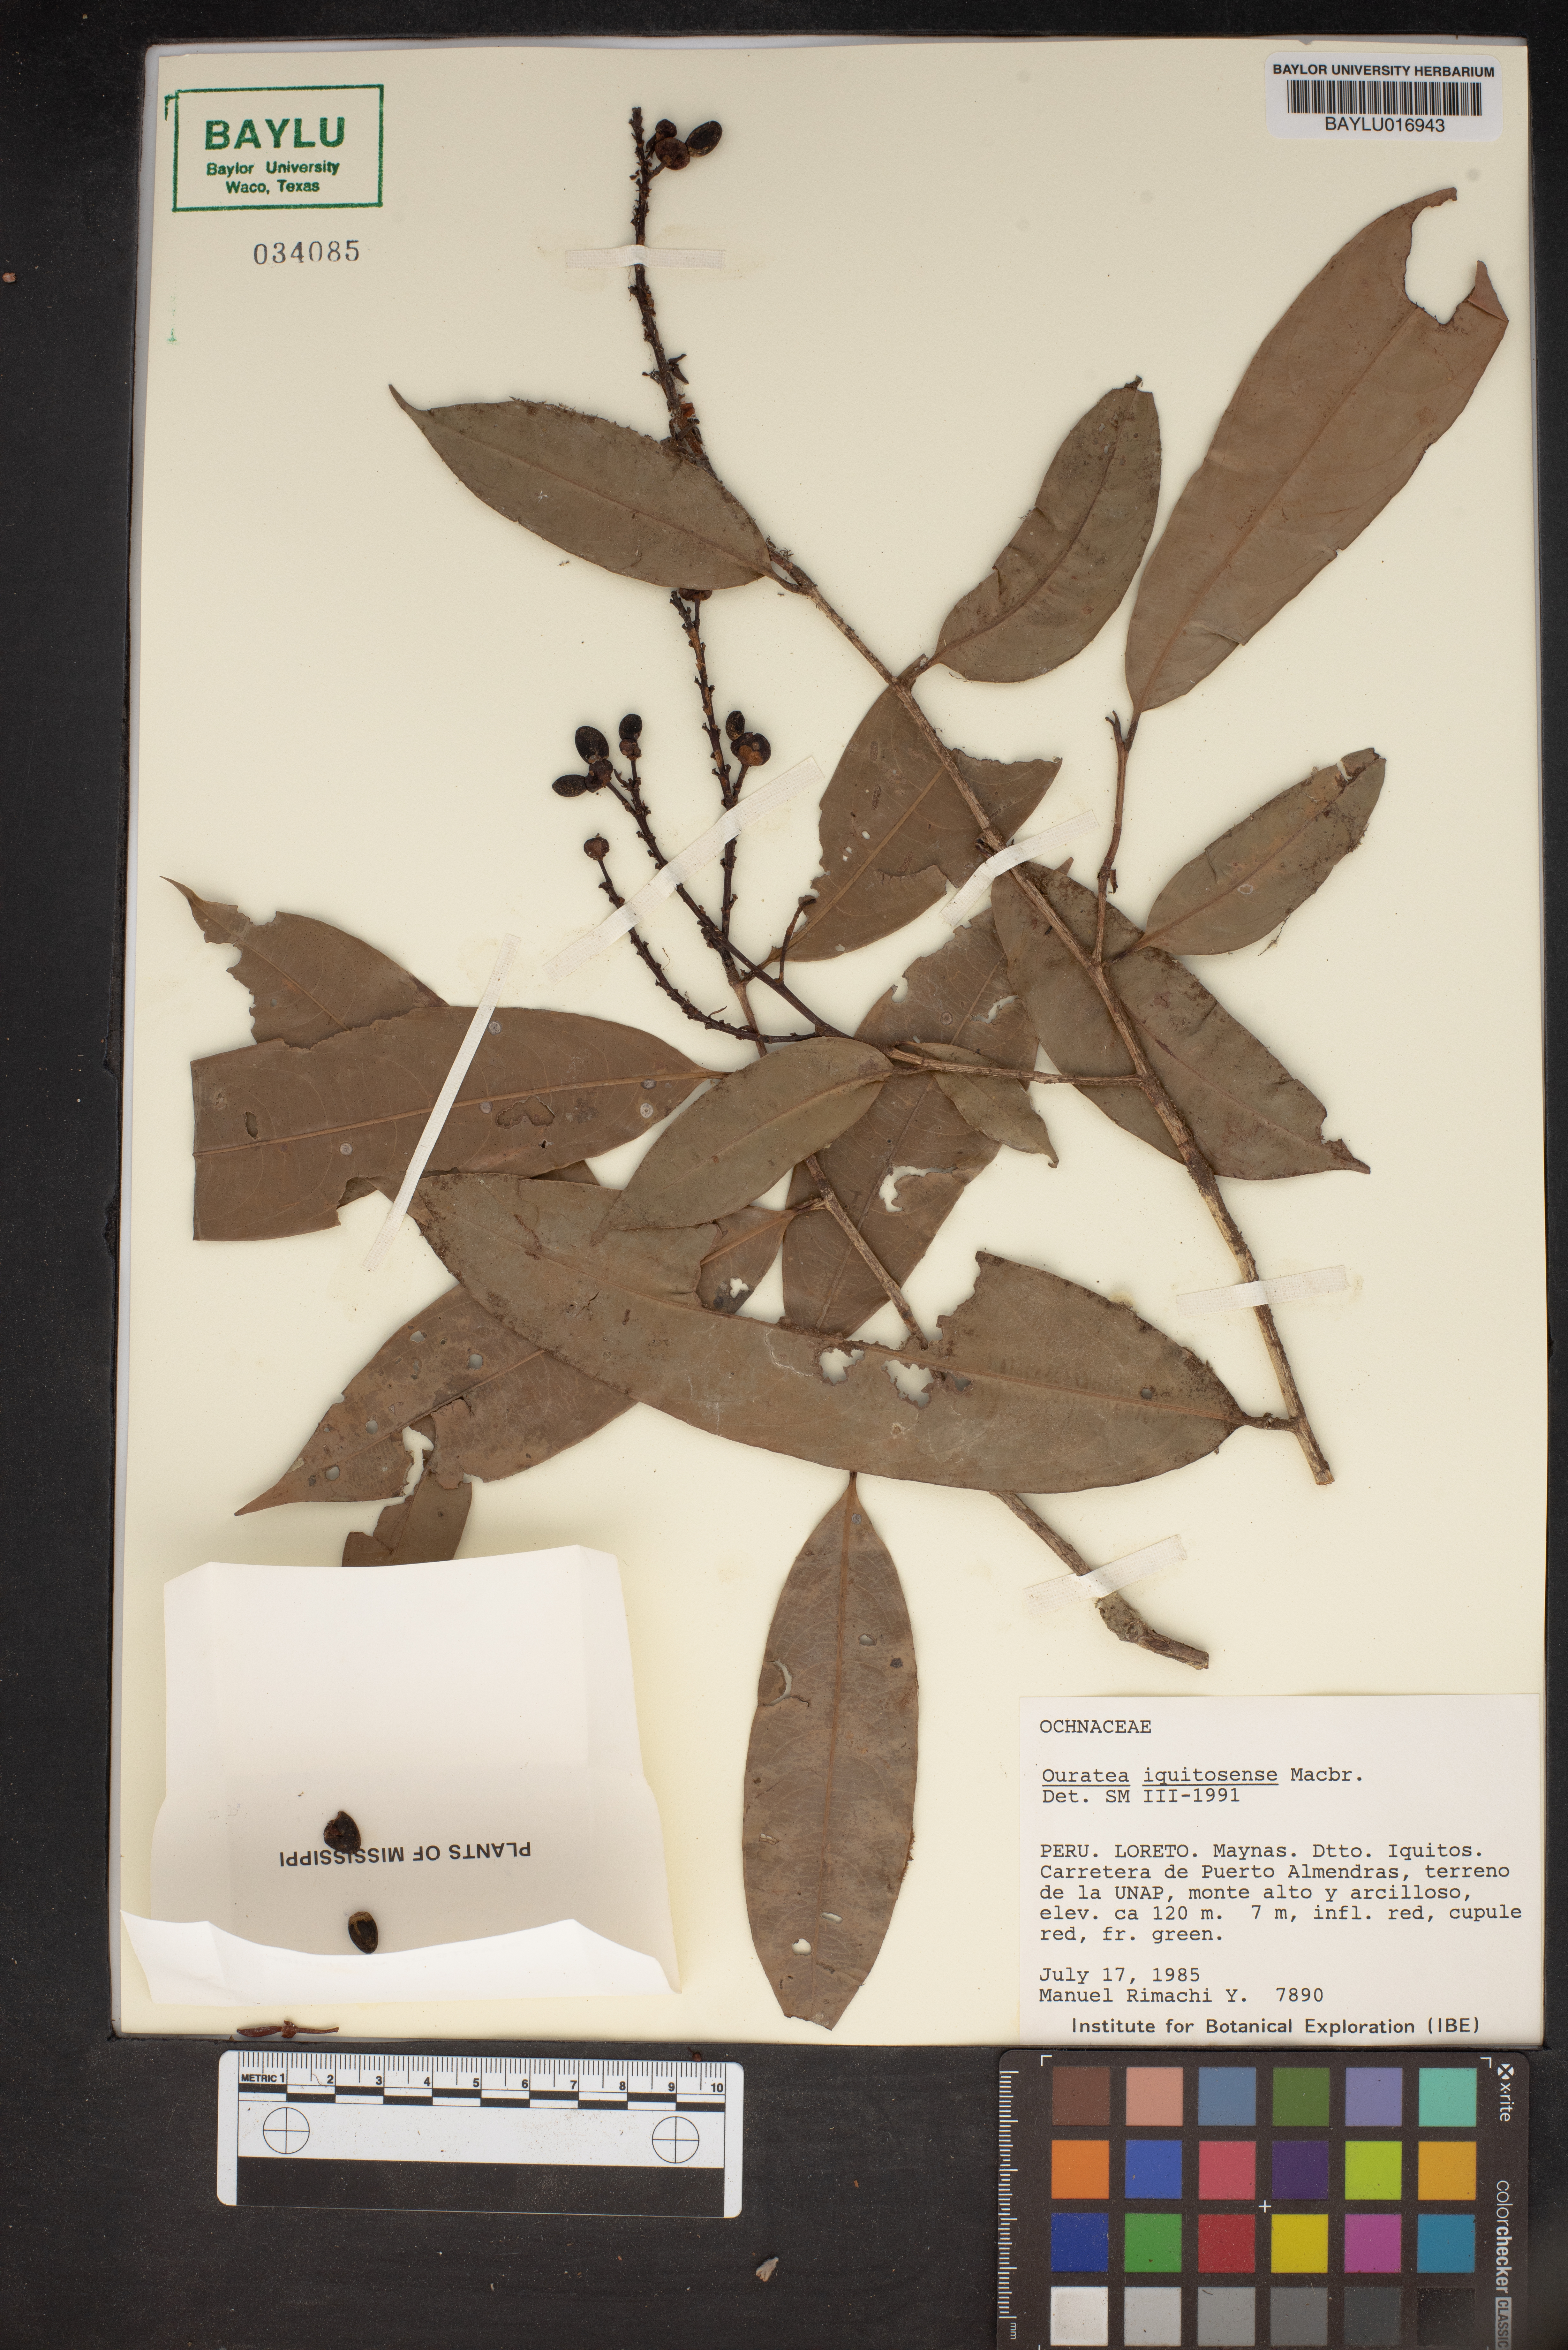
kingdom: Plantae
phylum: Tracheophyta
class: Magnoliopsida
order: Malpighiales
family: Ochnaceae
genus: Ouratea
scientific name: Ouratea iquitosensis
